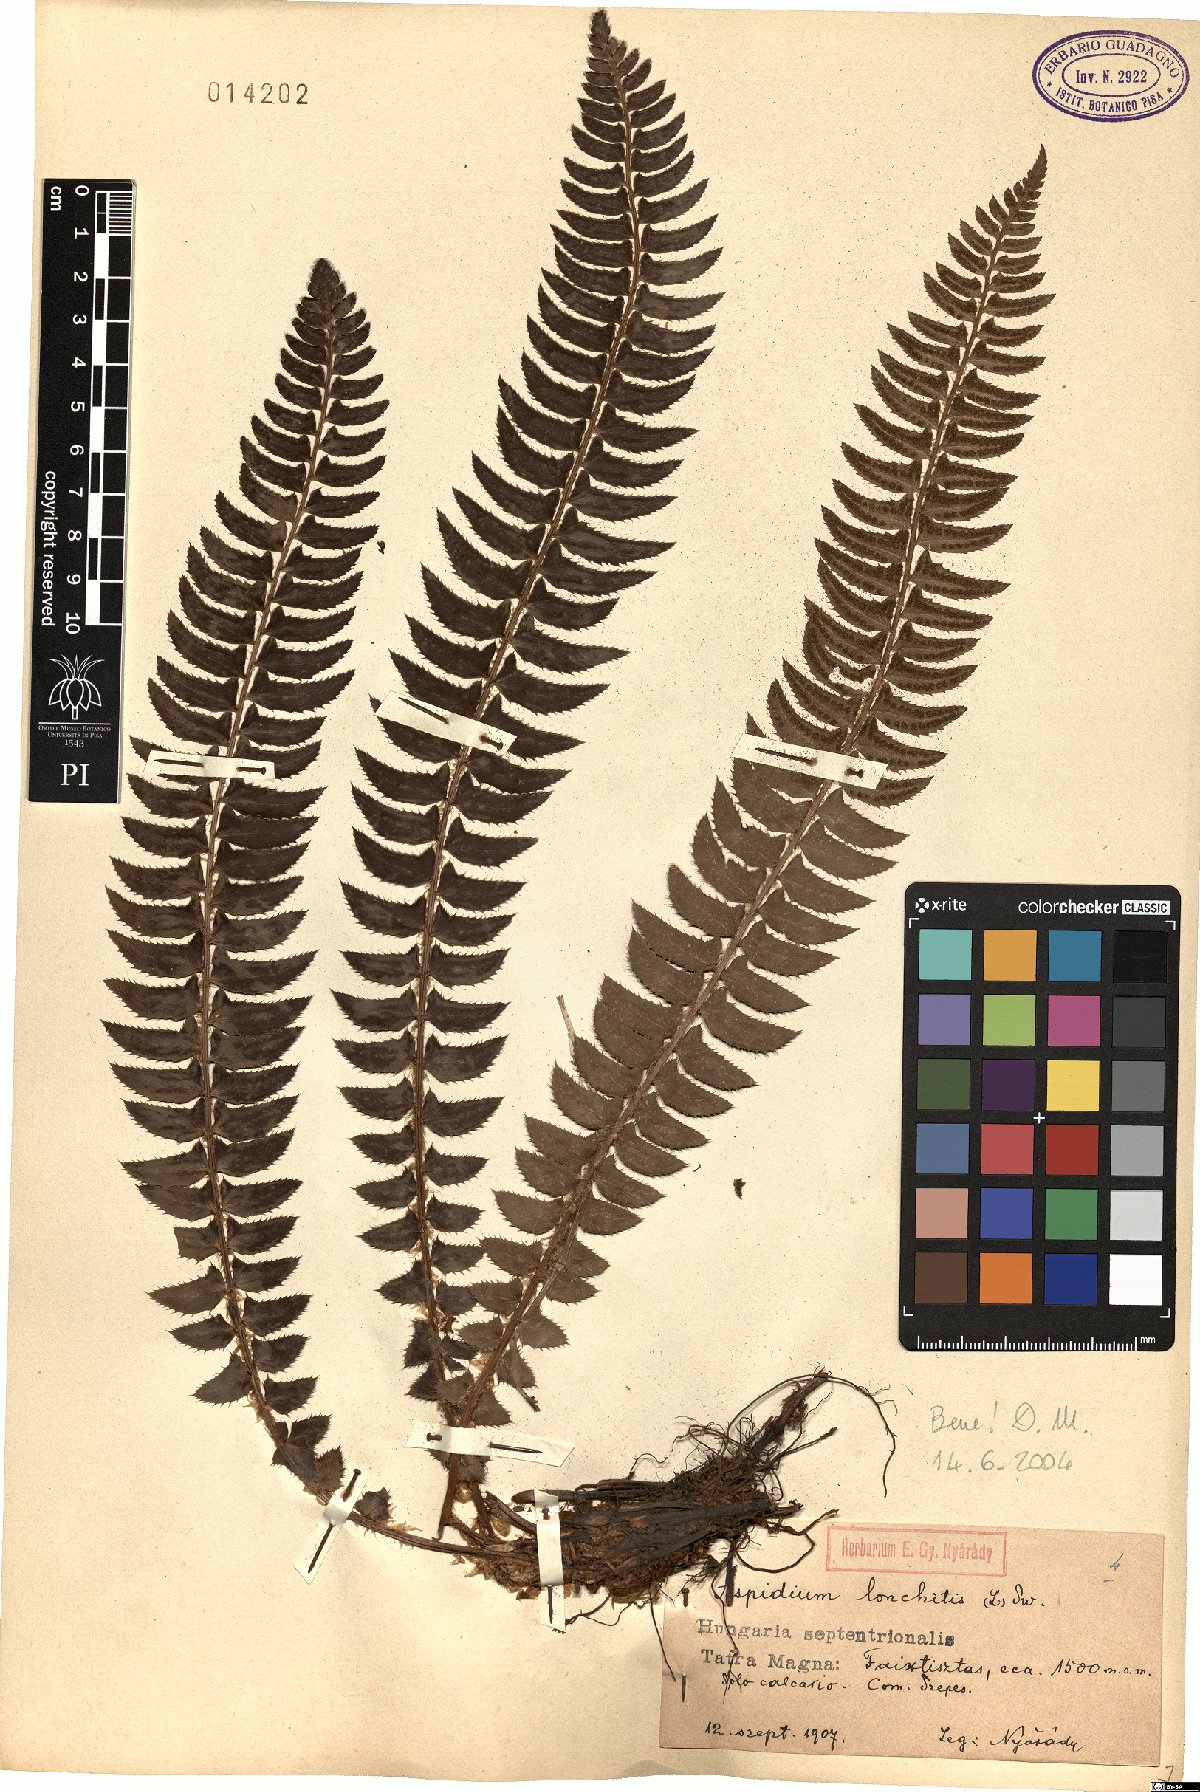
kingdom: Plantae
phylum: Tracheophyta
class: Polypodiopsida
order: Polypodiales
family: Dryopteridaceae
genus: Polystichum
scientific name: Polystichum lonchitis
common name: Holly fern
